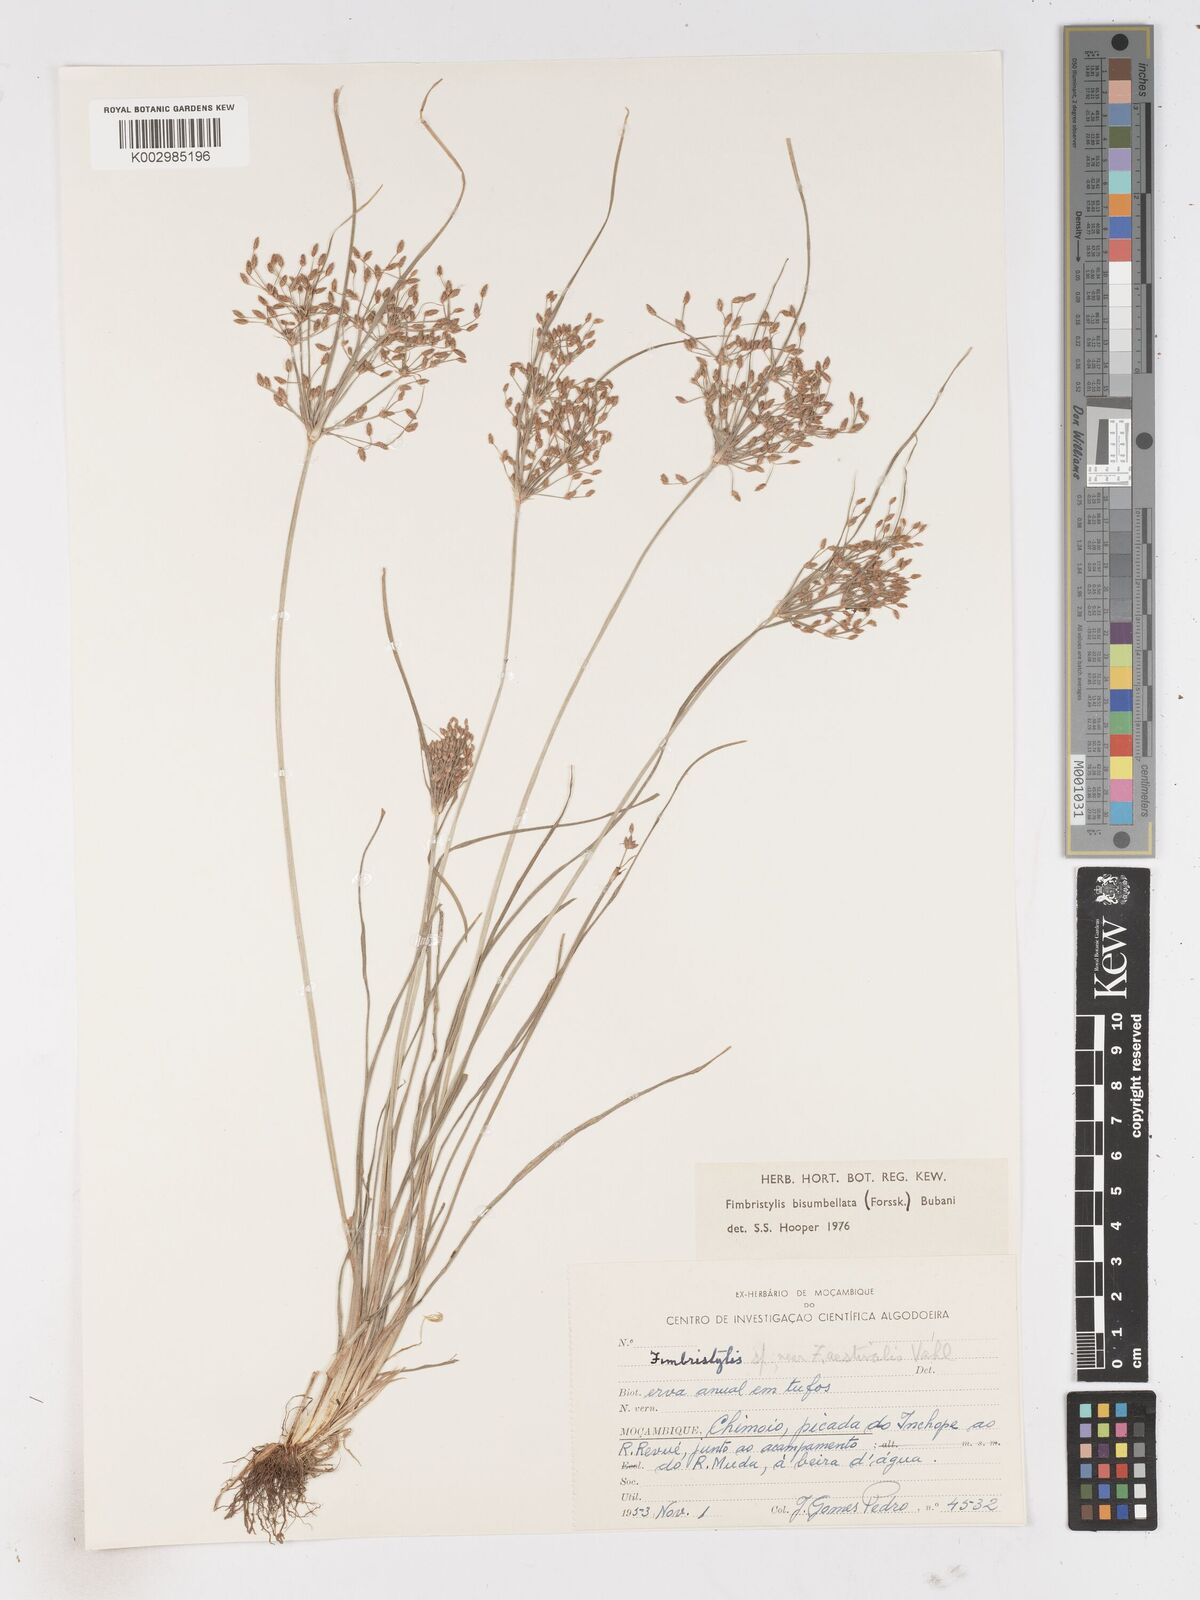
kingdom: Plantae
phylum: Tracheophyta
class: Liliopsida
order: Poales
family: Cyperaceae
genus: Fimbristylis
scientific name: Fimbristylis bisumbellata
